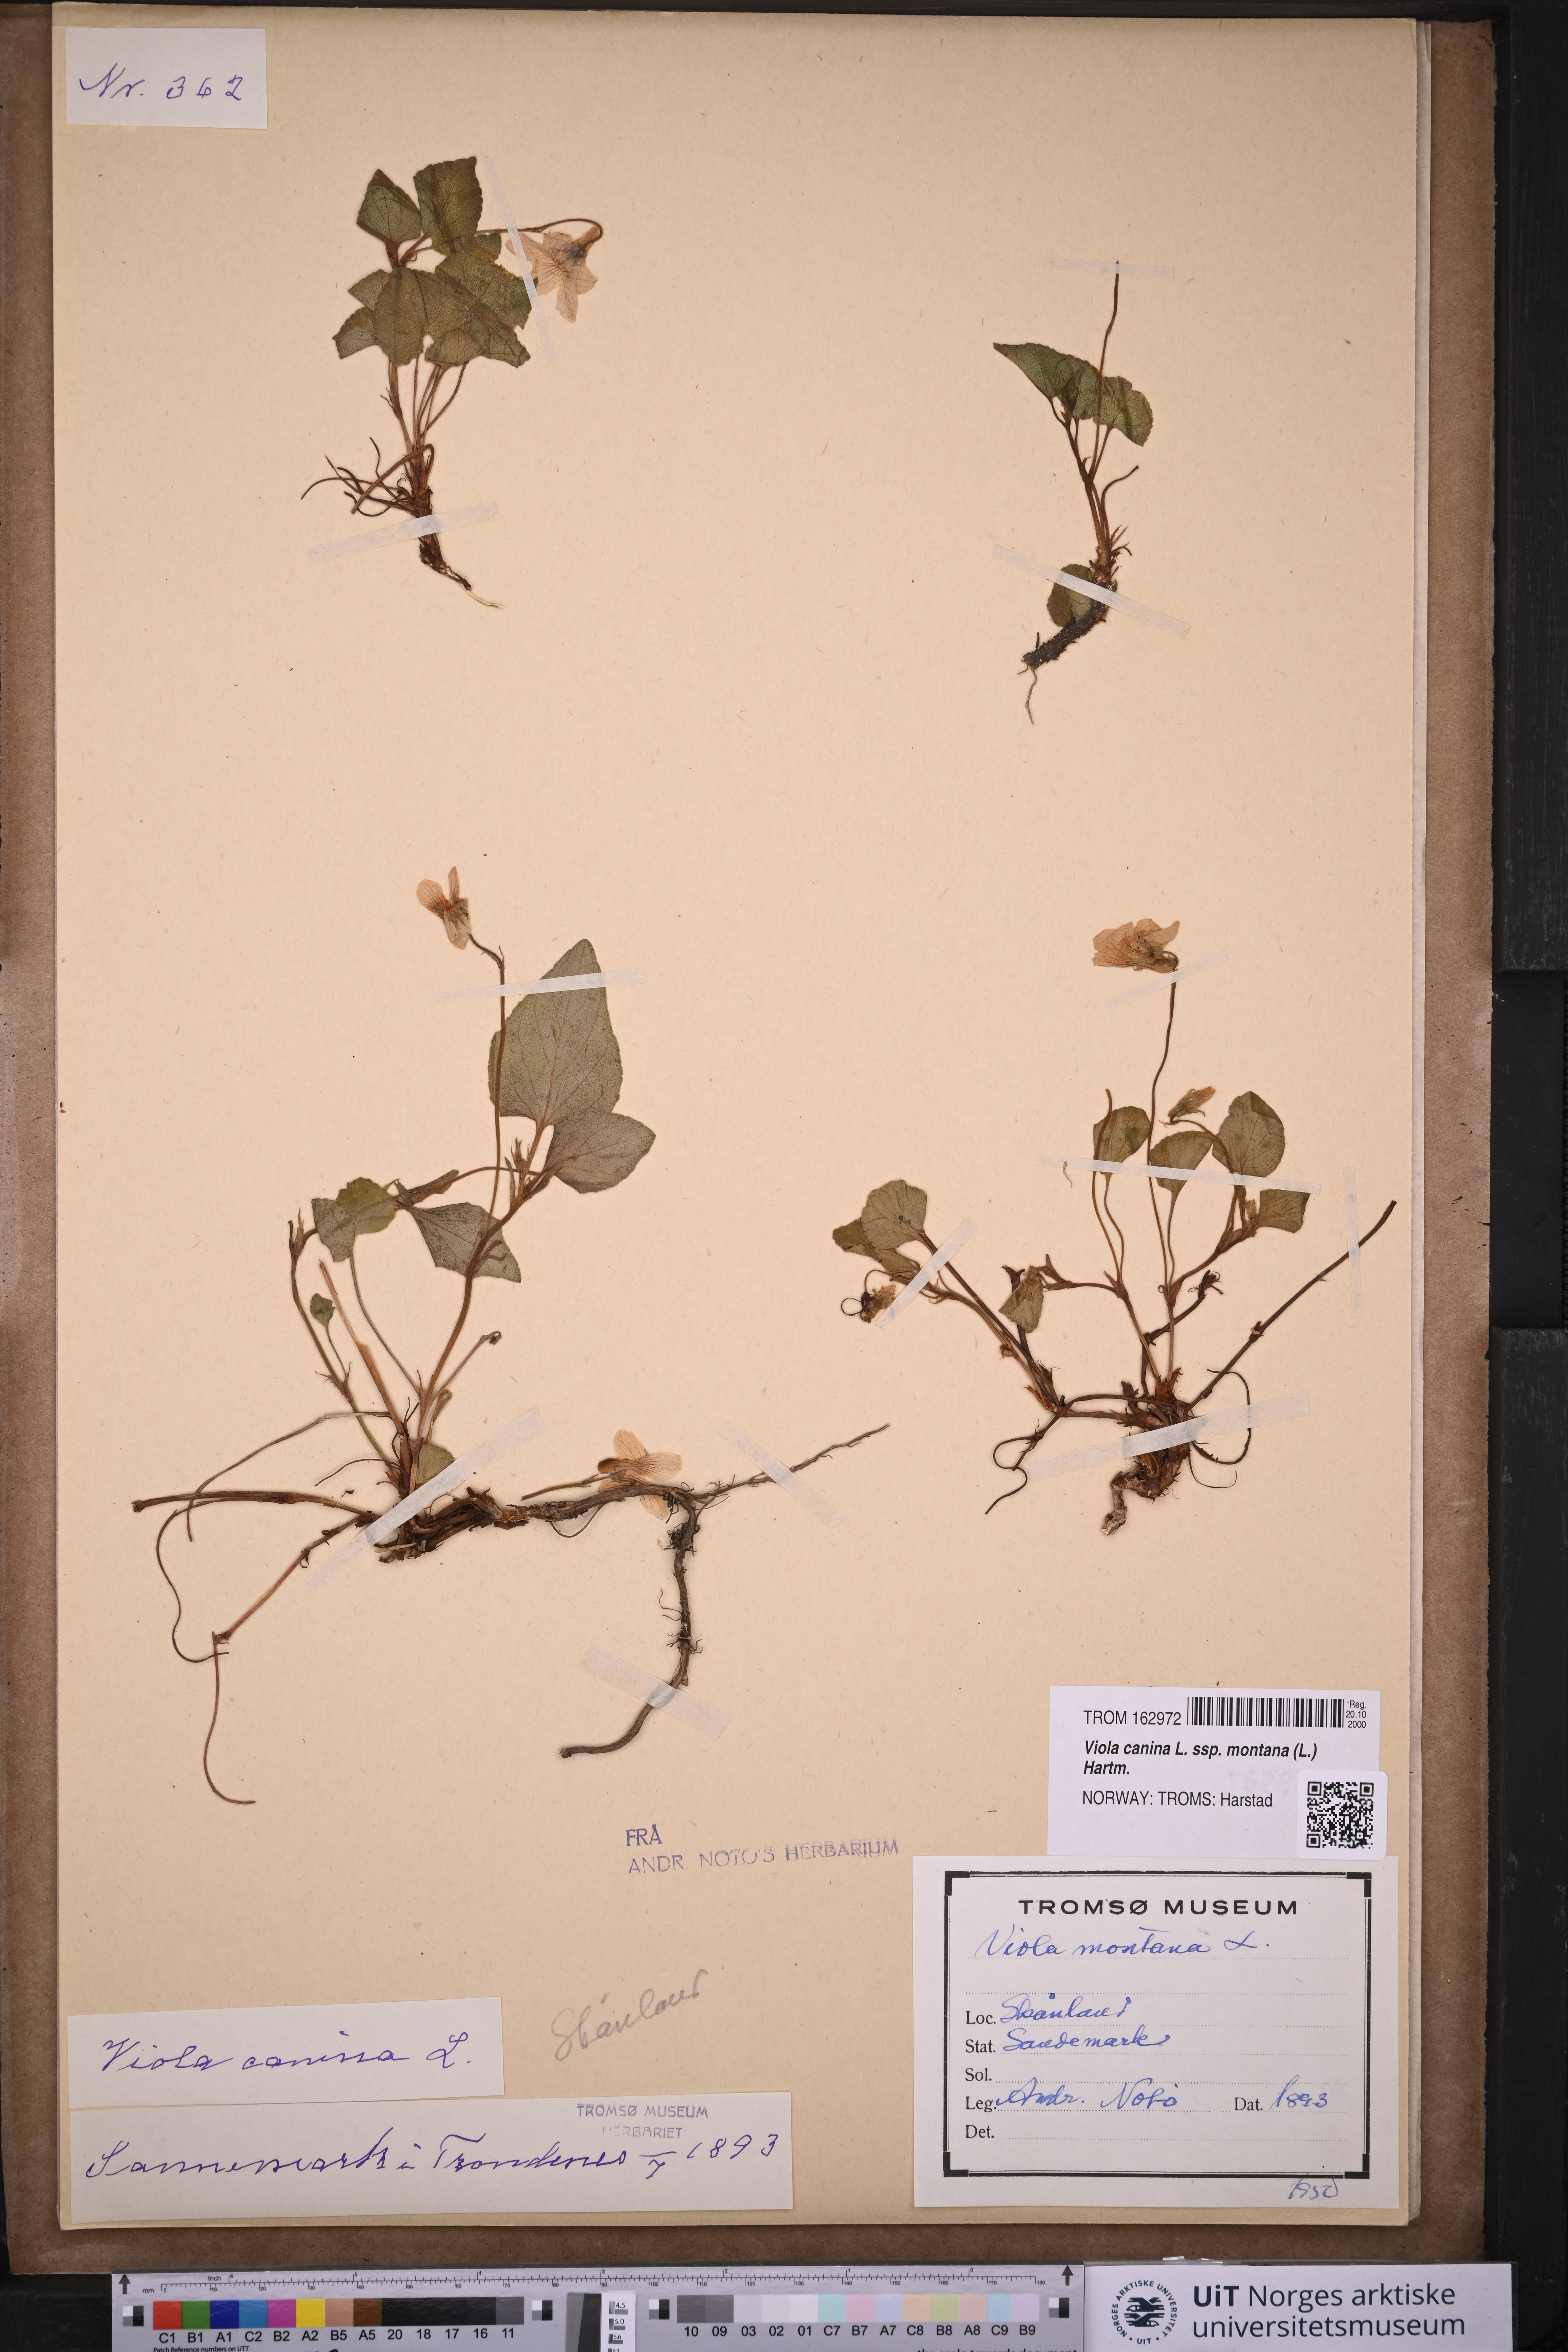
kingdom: Plantae
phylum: Tracheophyta
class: Magnoliopsida
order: Malpighiales
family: Violaceae
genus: Viola
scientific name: Viola ruppii
